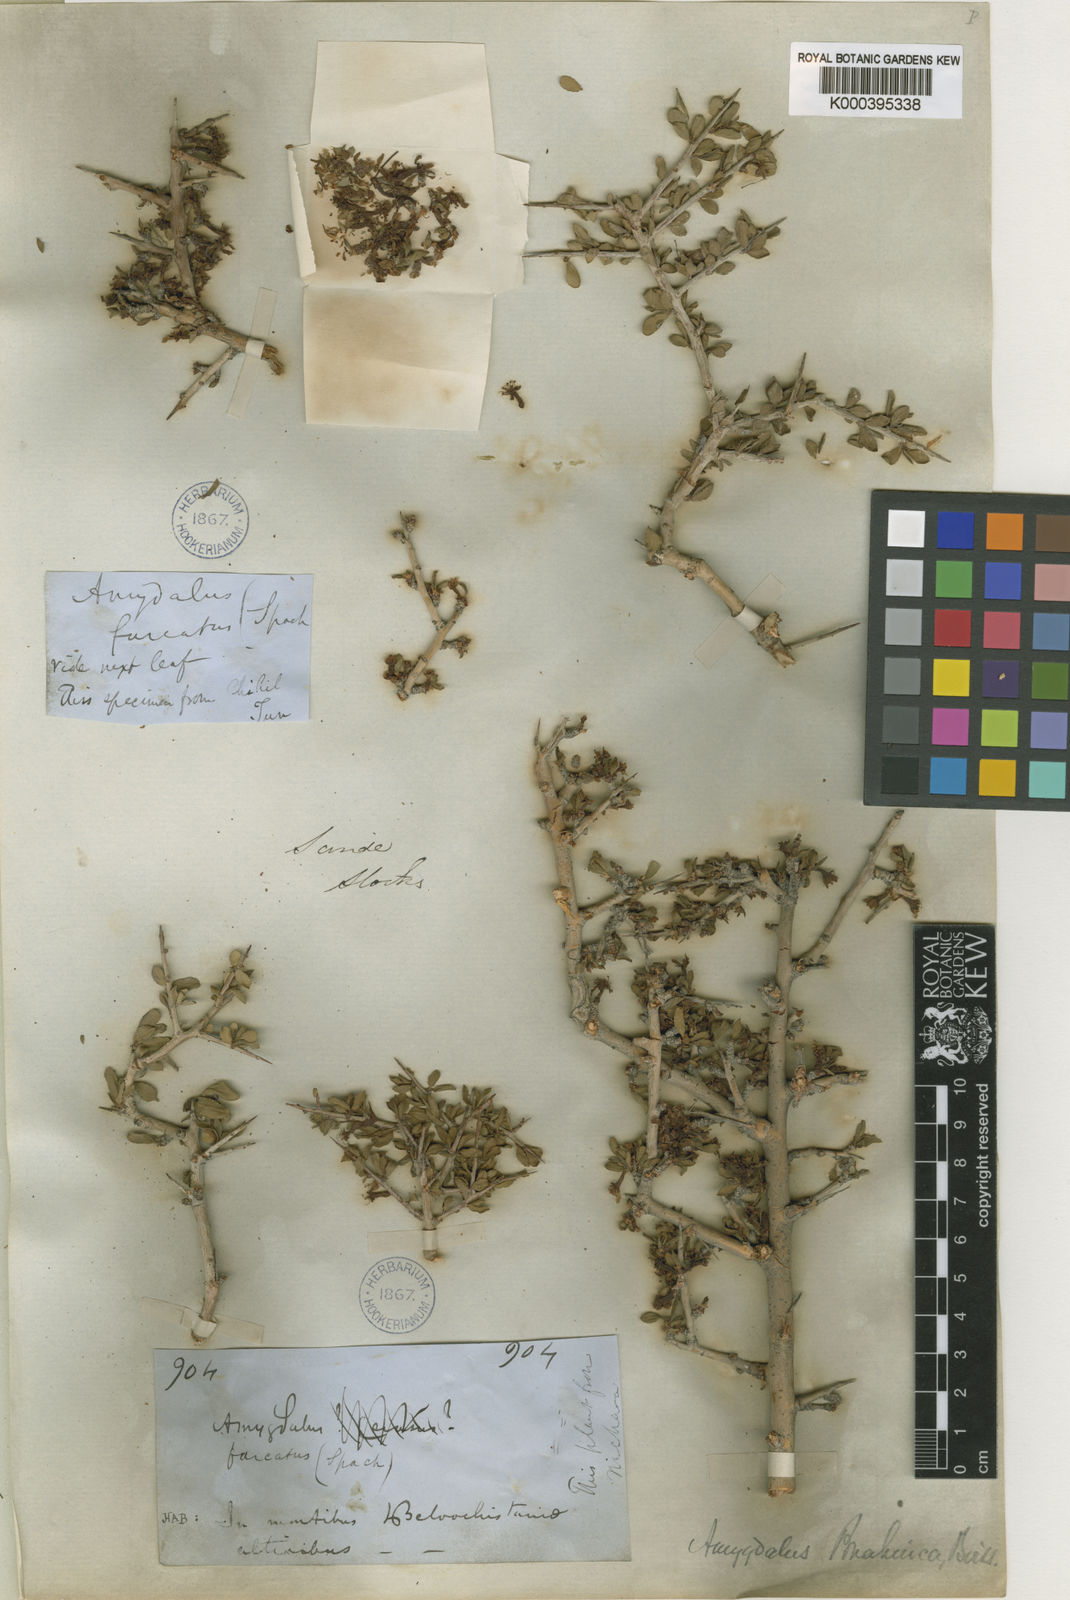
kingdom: Plantae
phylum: Tracheophyta
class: Magnoliopsida
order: Rosales
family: Rosaceae
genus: Prunus
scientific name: Prunus brahuica
